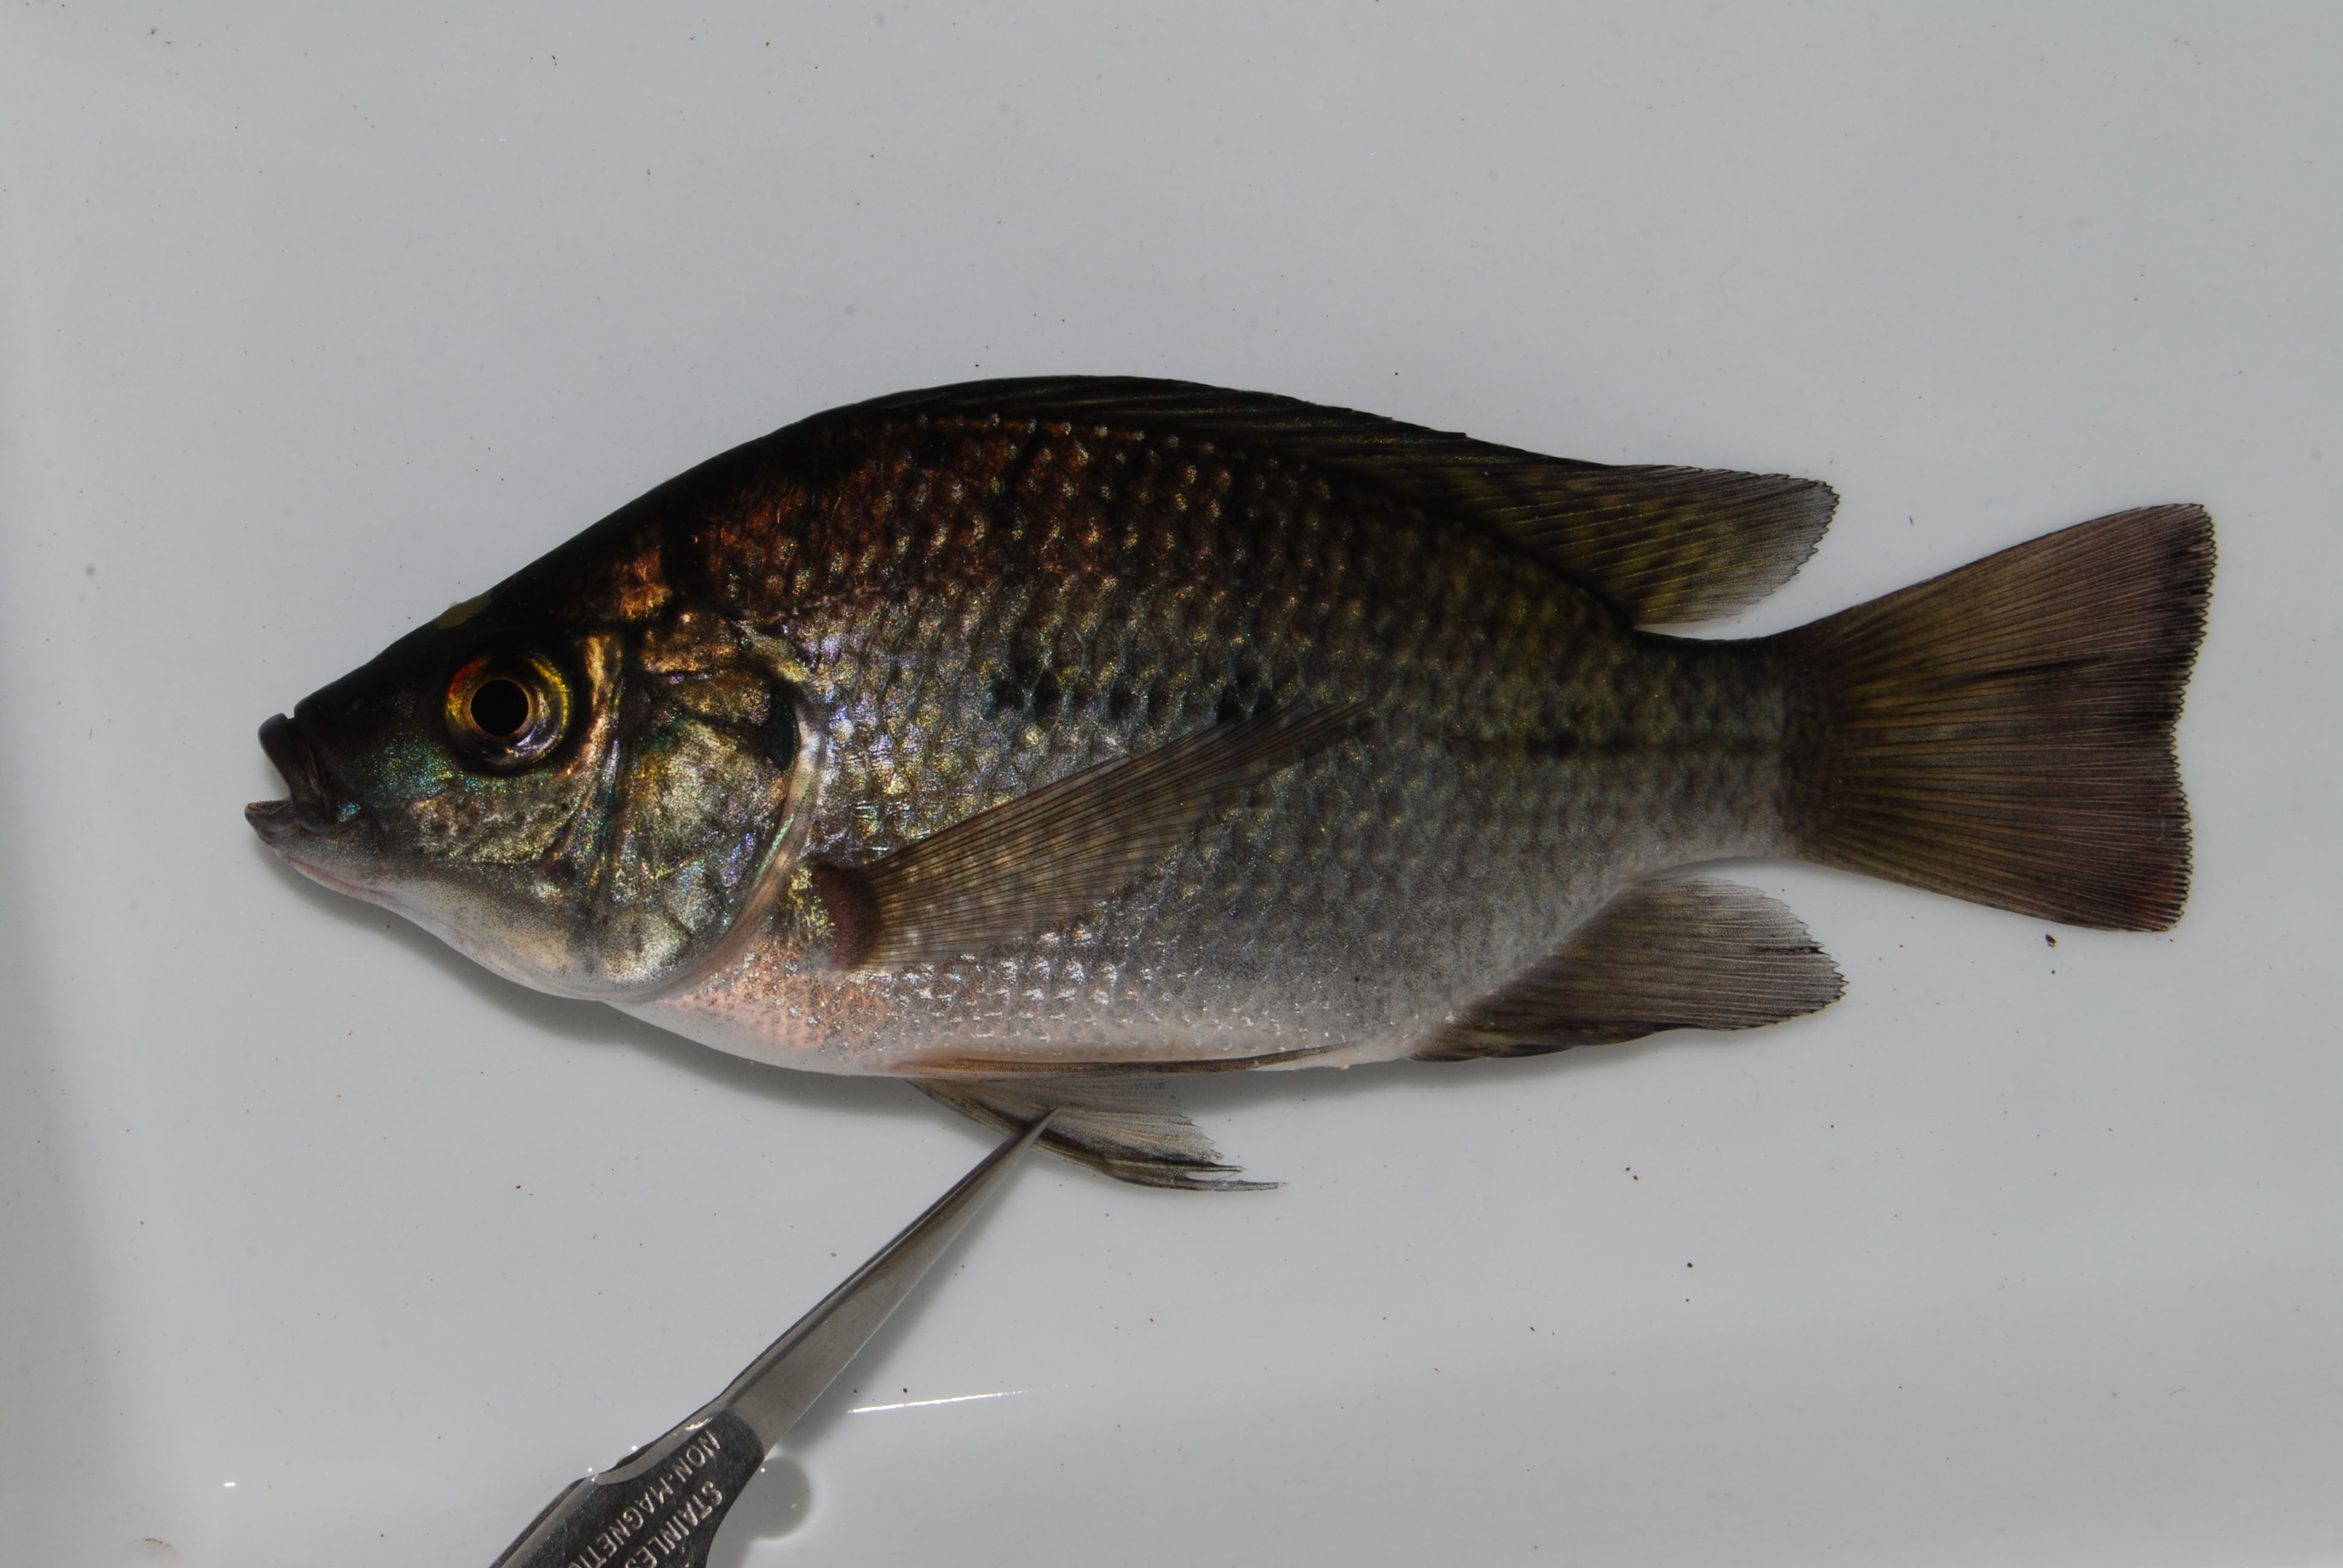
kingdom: Animalia
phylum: Chordata
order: Perciformes
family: Cichlidae
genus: Oreochromis
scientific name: Oreochromis andersonii
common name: Threespot tilapia
